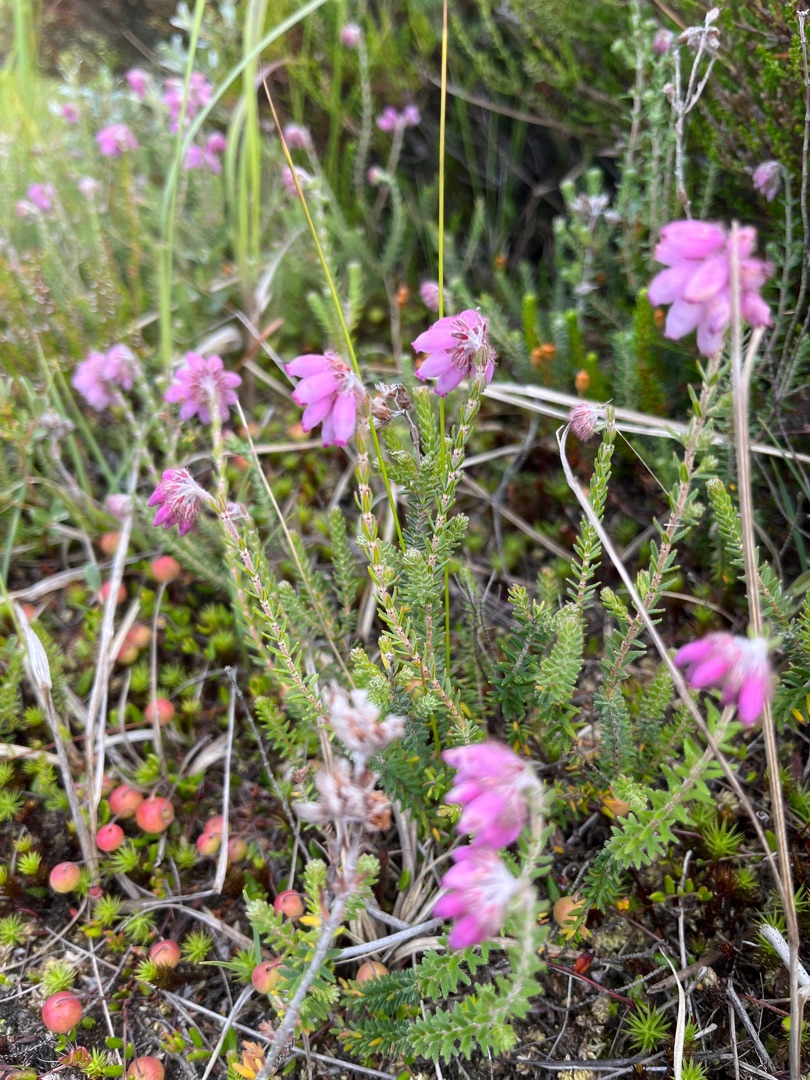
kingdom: Plantae
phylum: Tracheophyta
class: Magnoliopsida
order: Ericales
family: Ericaceae
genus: Erica
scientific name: Erica tetralix
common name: Klokkelyng
